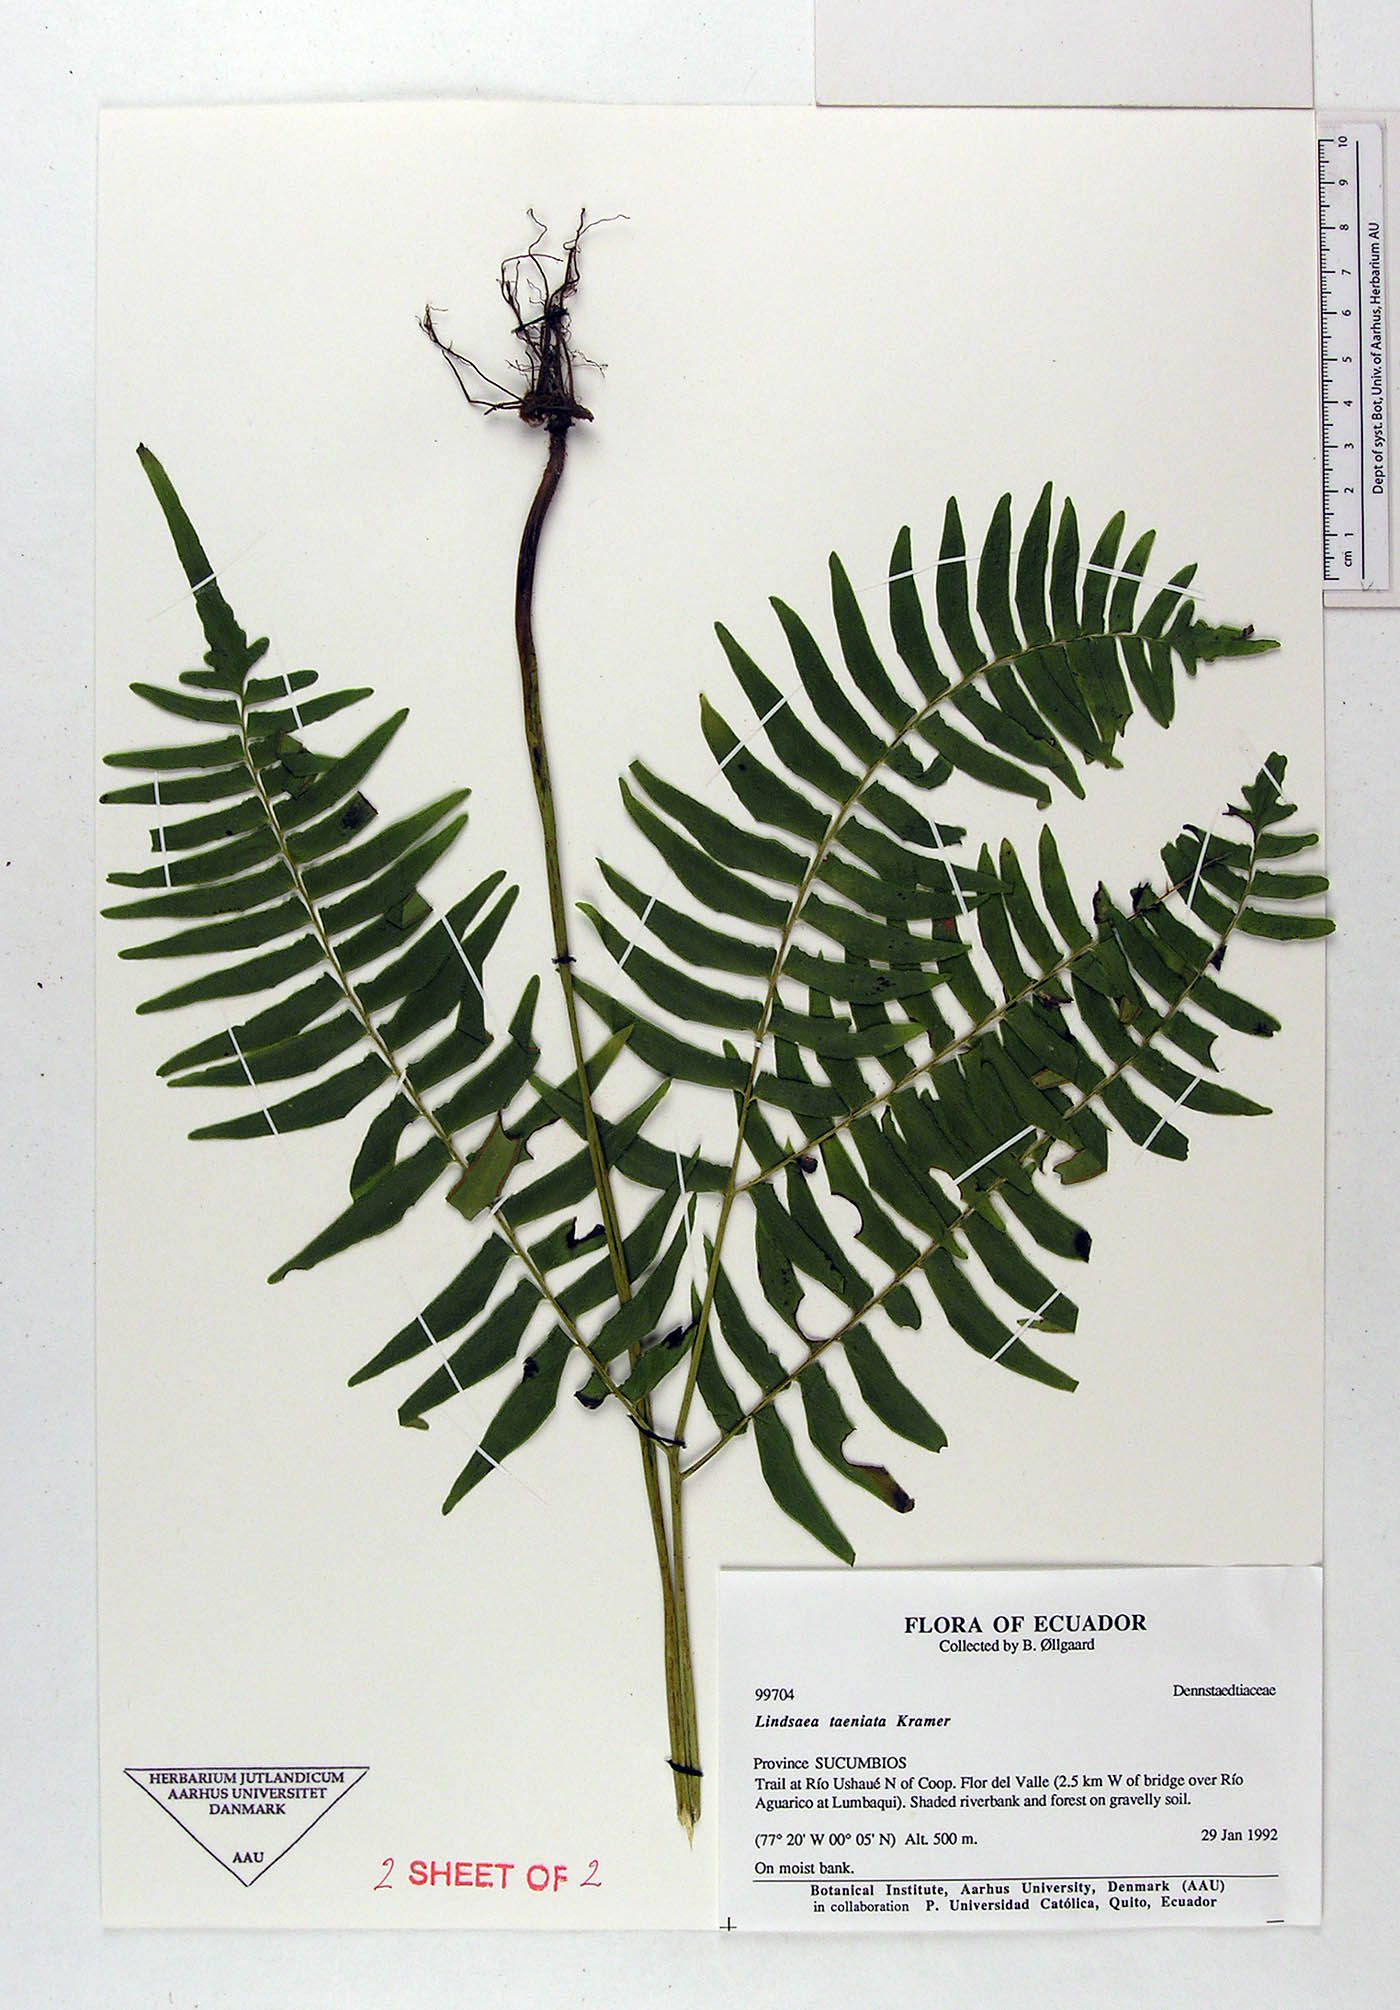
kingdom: Plantae
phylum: Tracheophyta
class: Polypodiopsida
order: Polypodiales
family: Lindsaeaceae
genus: Lindsaea
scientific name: Lindsaea taeniata
